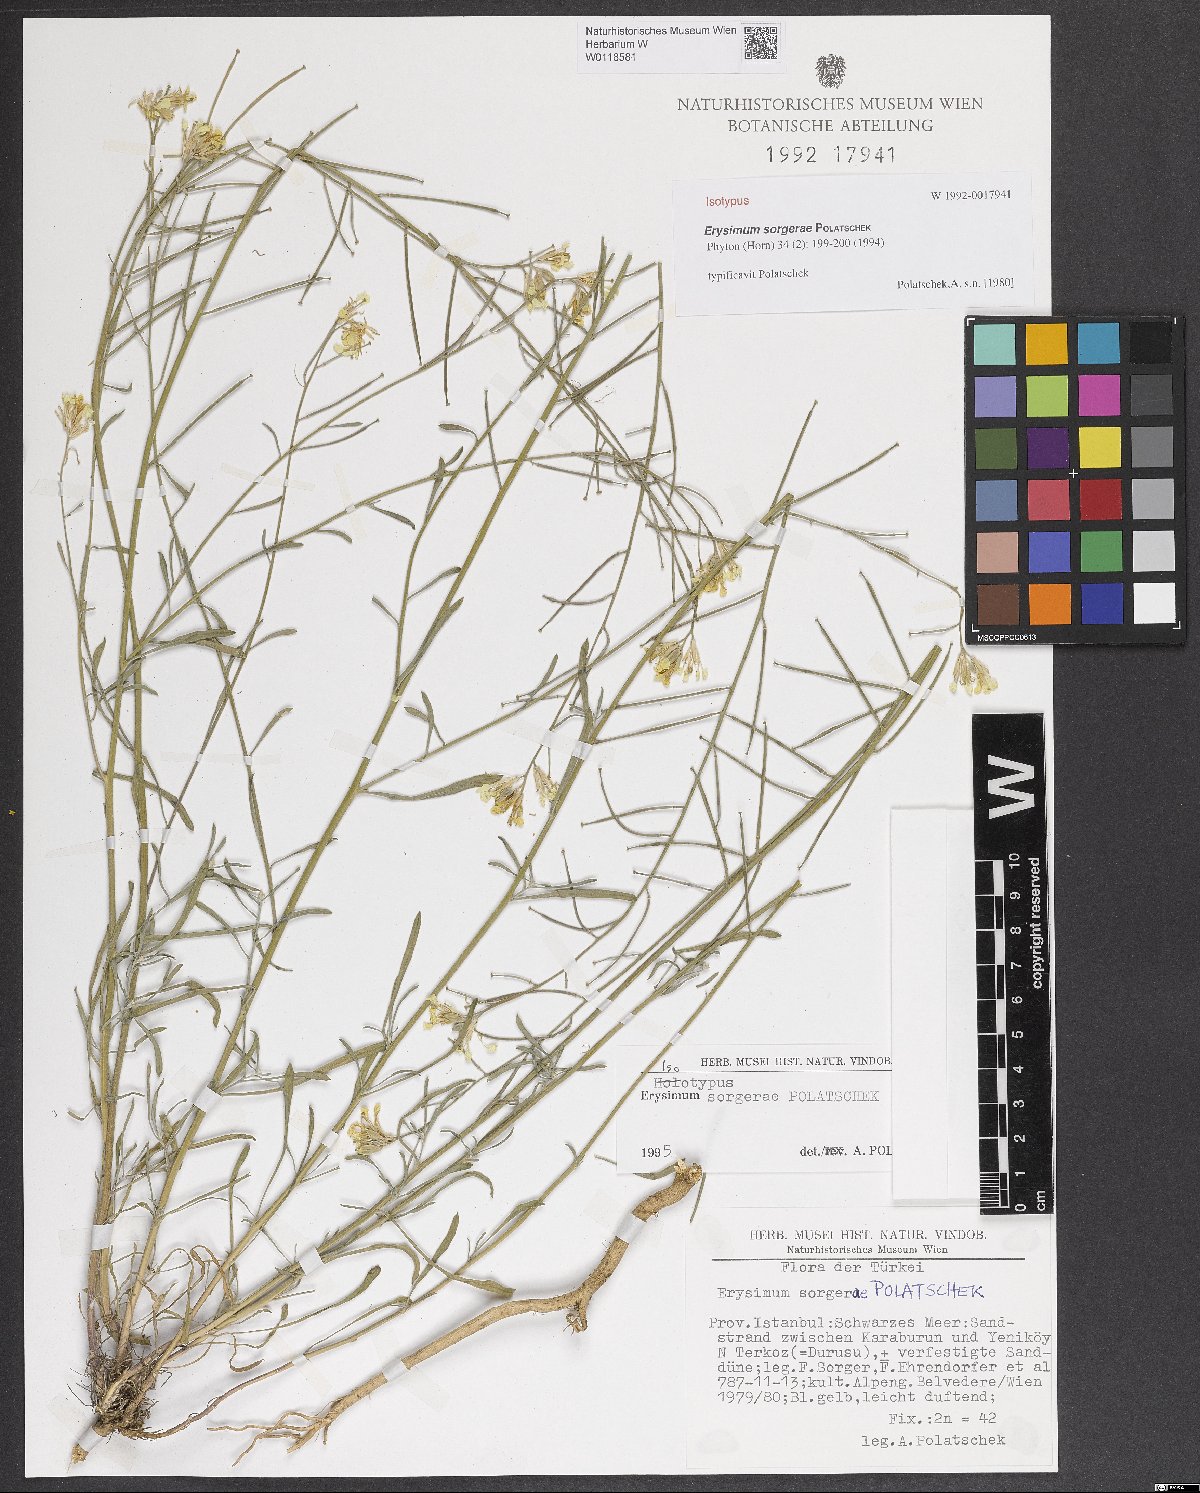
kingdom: Plantae
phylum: Tracheophyta
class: Magnoliopsida
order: Brassicales
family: Brassicaceae
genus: Erysimum
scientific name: Erysimum sorgerae
